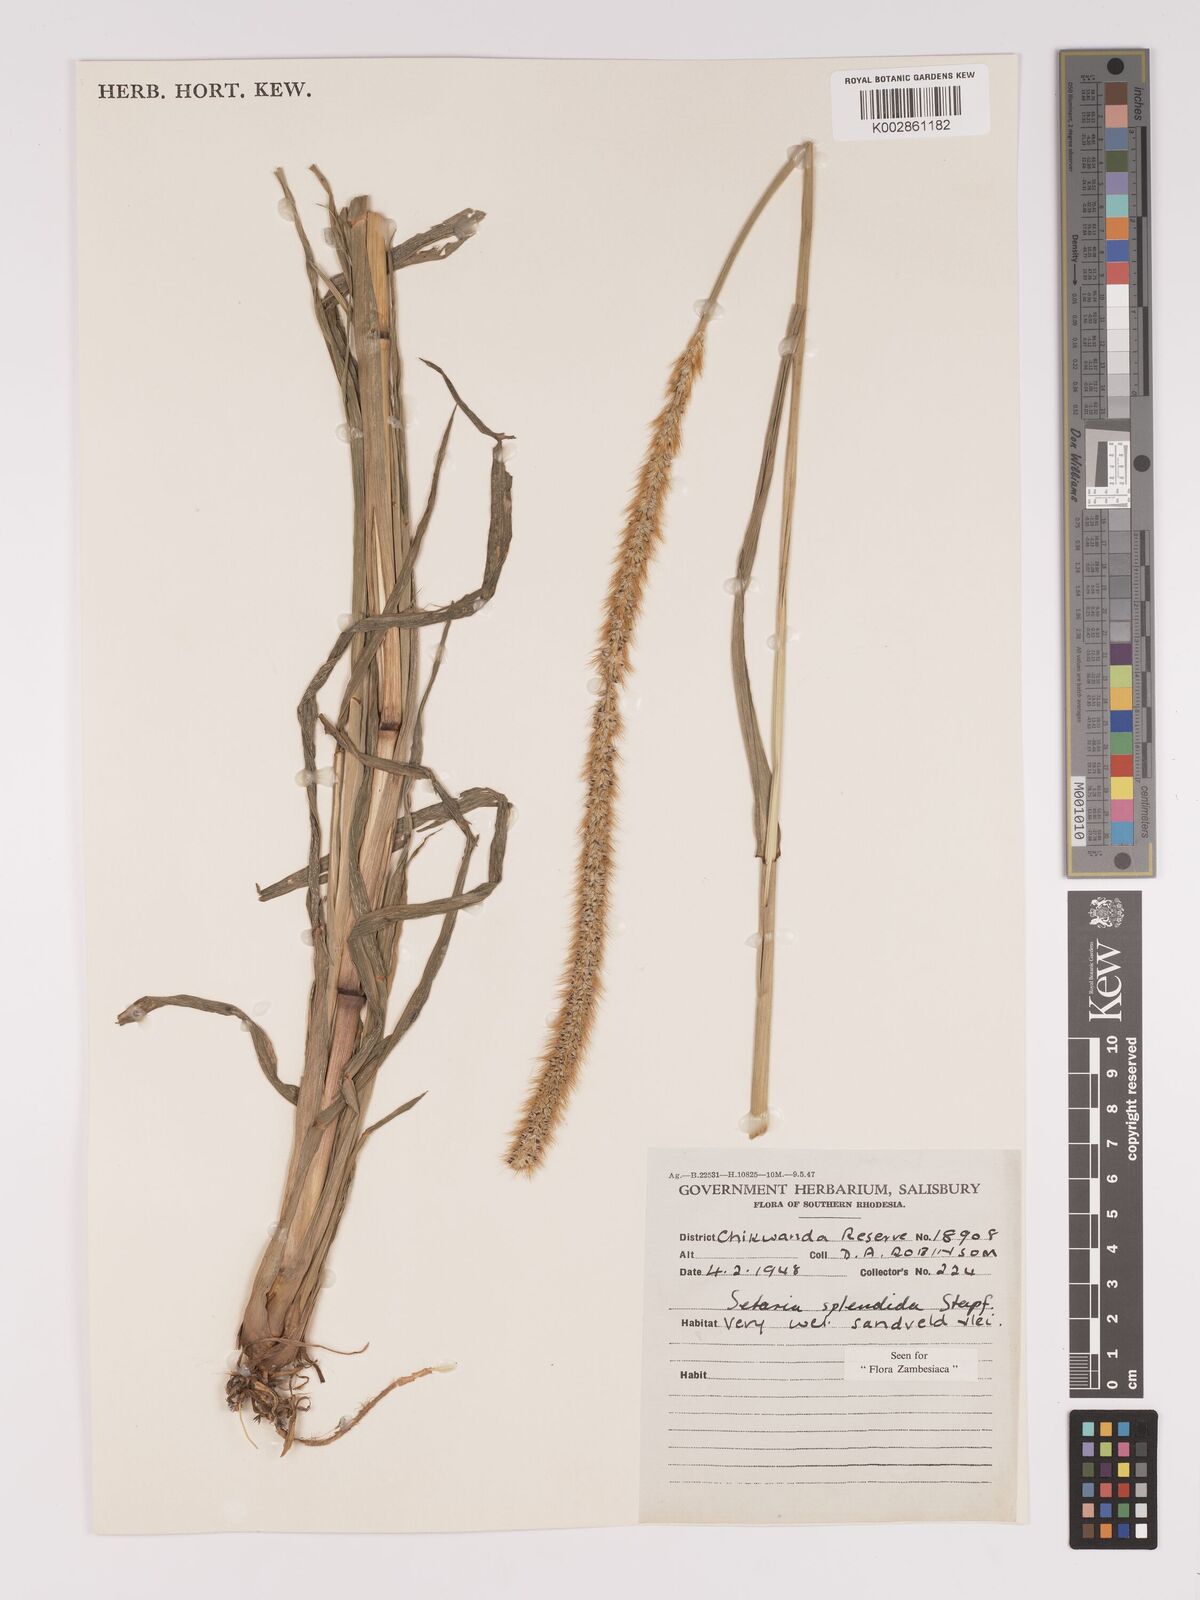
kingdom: Plantae
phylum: Tracheophyta
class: Liliopsida
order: Poales
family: Poaceae
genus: Setaria
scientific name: Setaria sphacelata
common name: African bristlegrass
